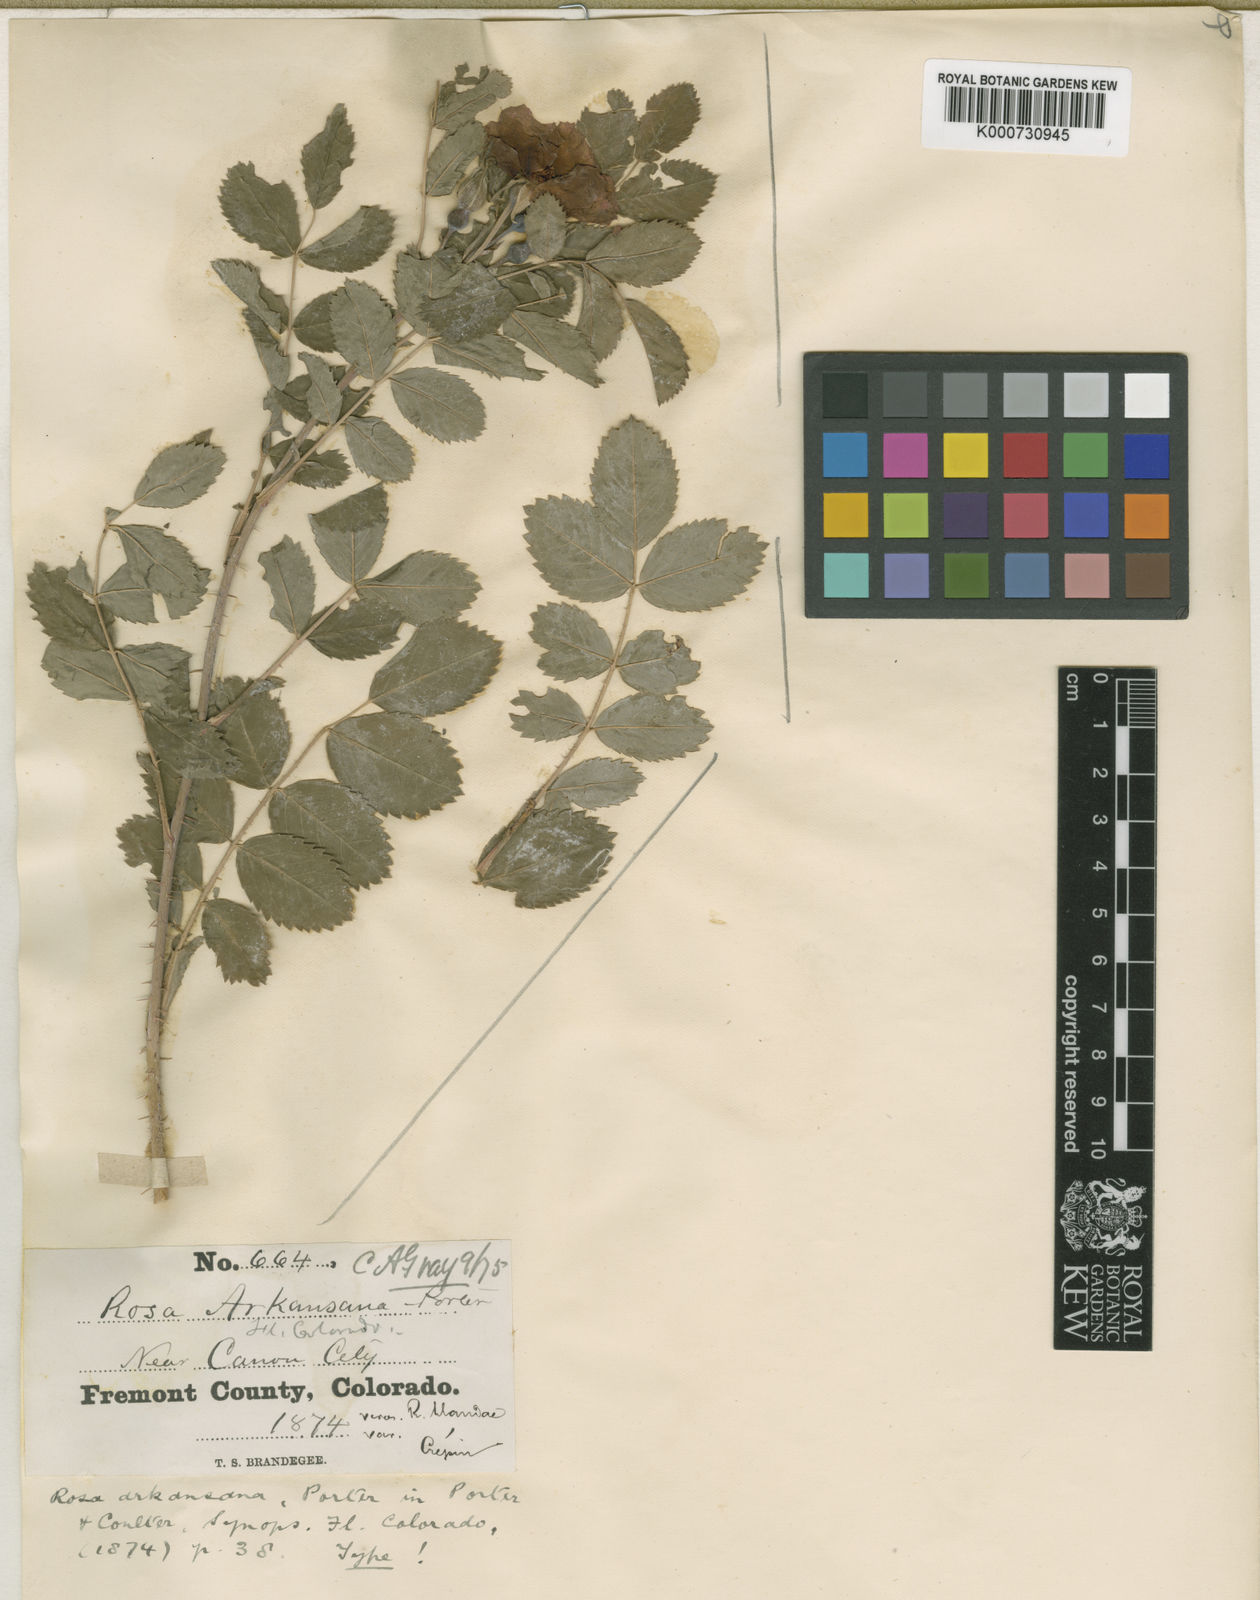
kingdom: Plantae
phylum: Tracheophyta
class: Magnoliopsida
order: Rosales
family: Rosaceae
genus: Rosa
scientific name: Rosa arkansana
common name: Prairie rose
